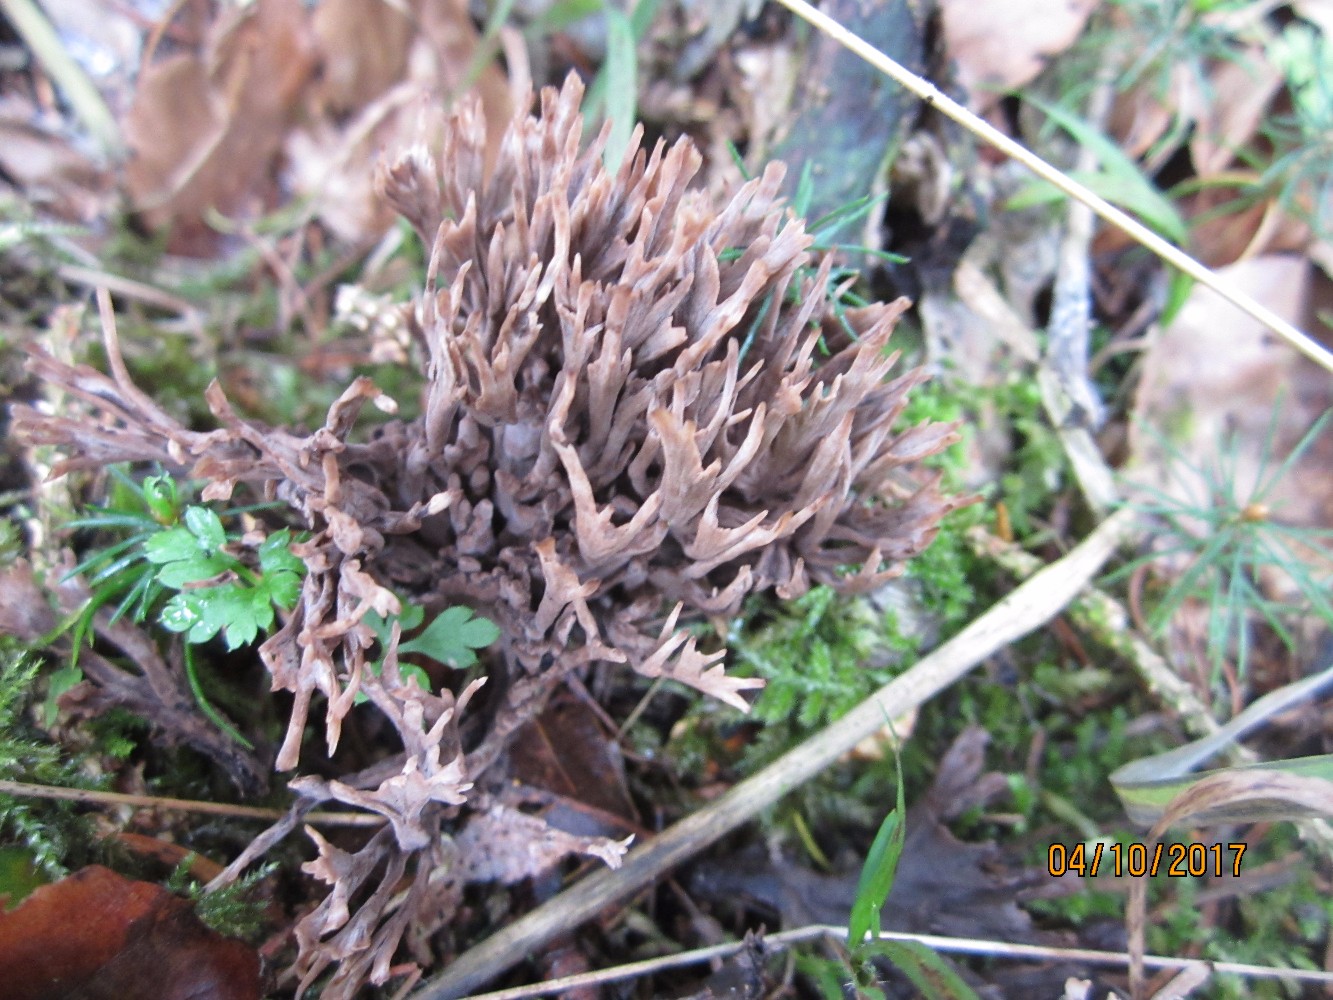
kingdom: Fungi
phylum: Basidiomycota
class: Agaricomycetes
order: Thelephorales
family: Thelephoraceae
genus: Thelephora
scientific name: Thelephora palmata
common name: grenet frynsesvamp
